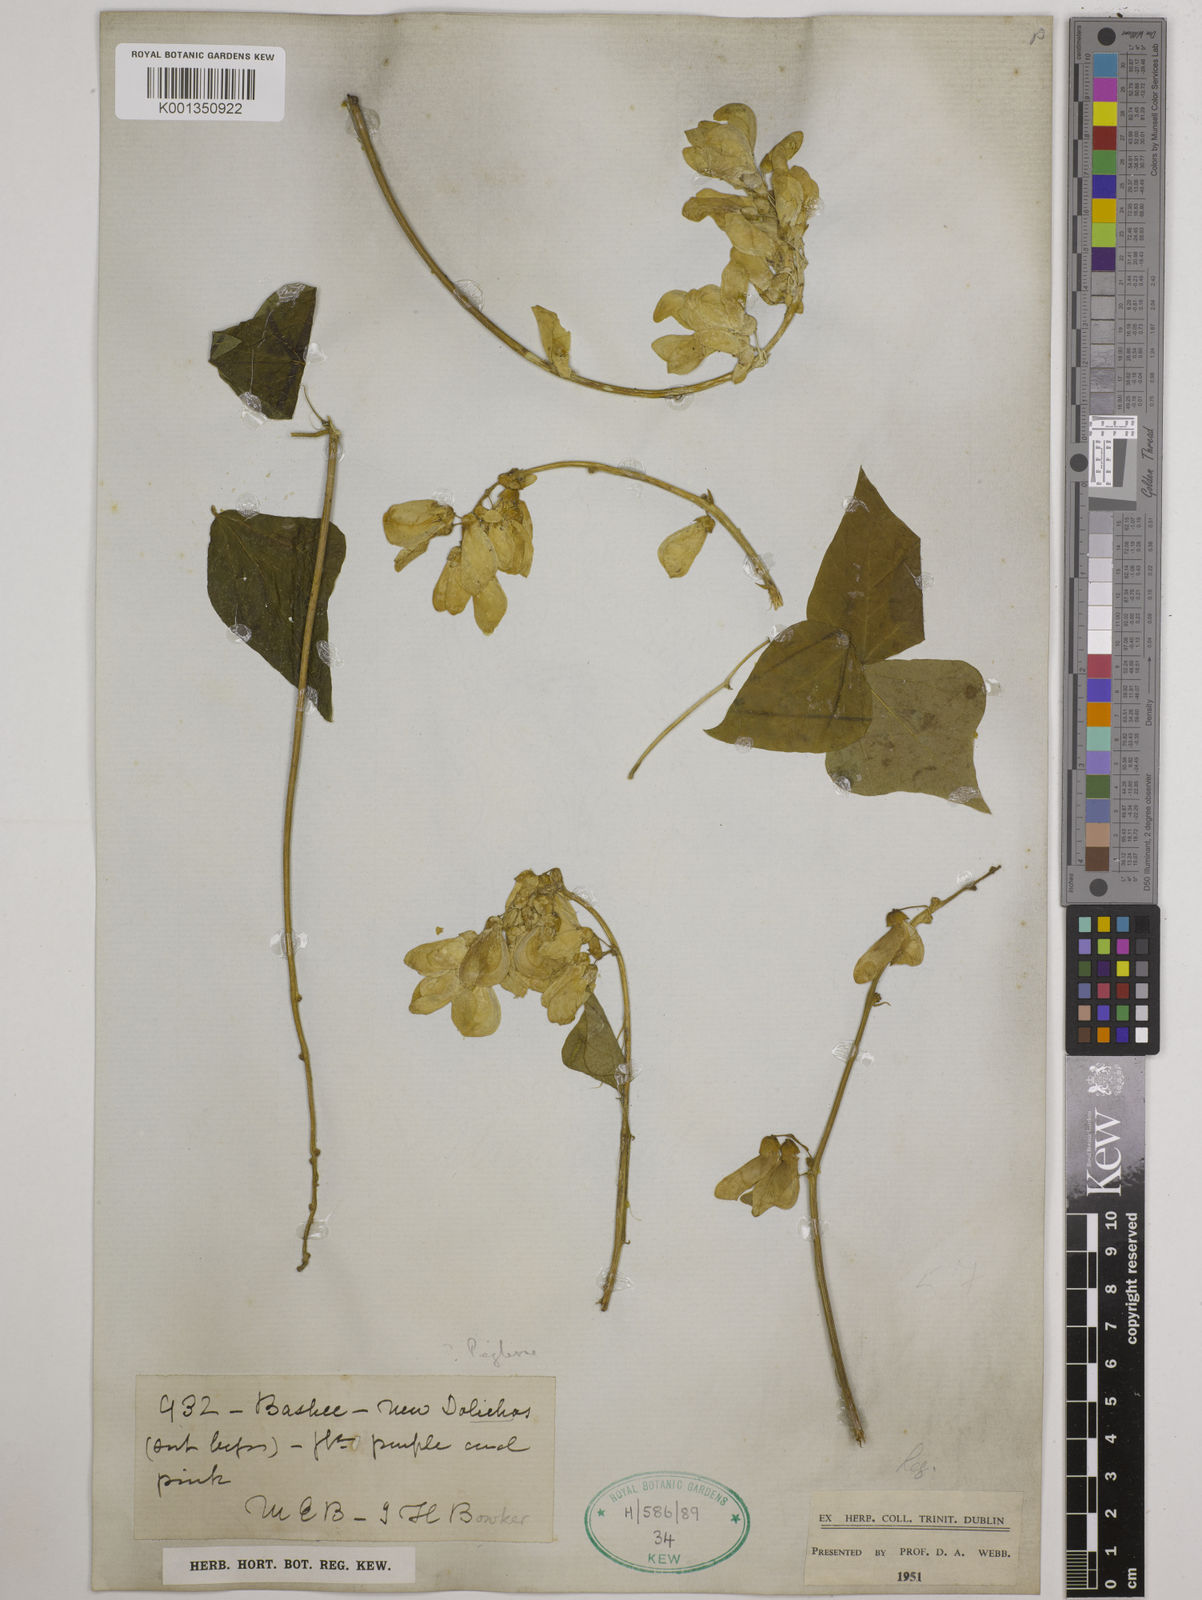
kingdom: Plantae
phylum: Tracheophyta
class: Magnoliopsida
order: Fabales
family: Fabaceae
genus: Dolichos
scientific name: Dolichos peglerae
